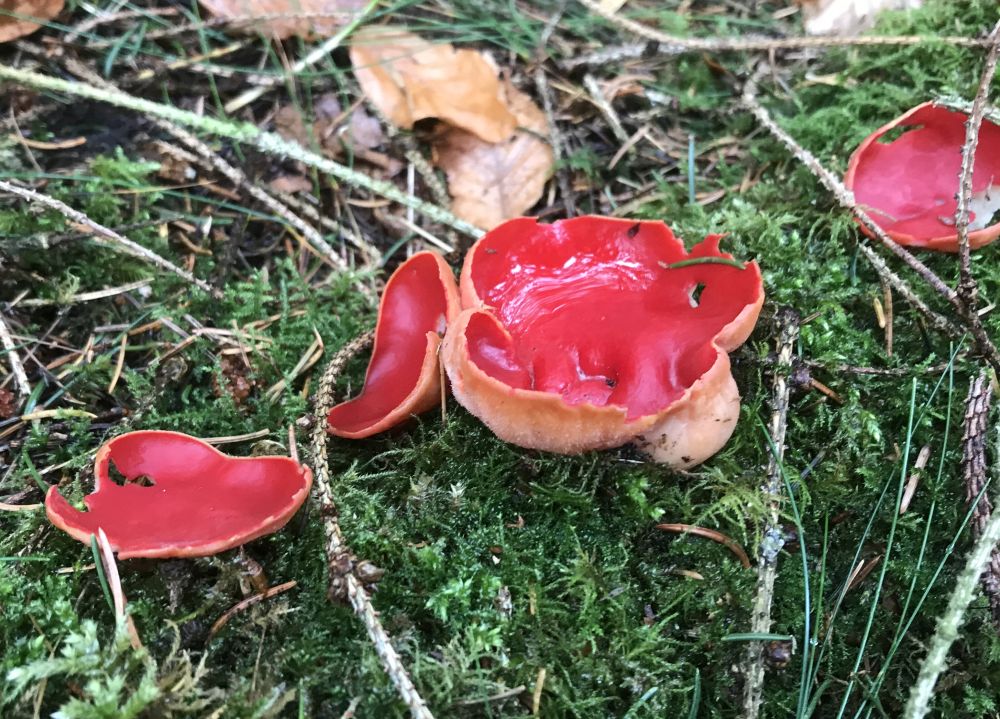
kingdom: Fungi
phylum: Ascomycota
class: Pezizomycetes
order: Pezizales
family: Sarcoscyphaceae
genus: Sarcoscypha
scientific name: Sarcoscypha austriaca
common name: krølhåret pragtbæger
